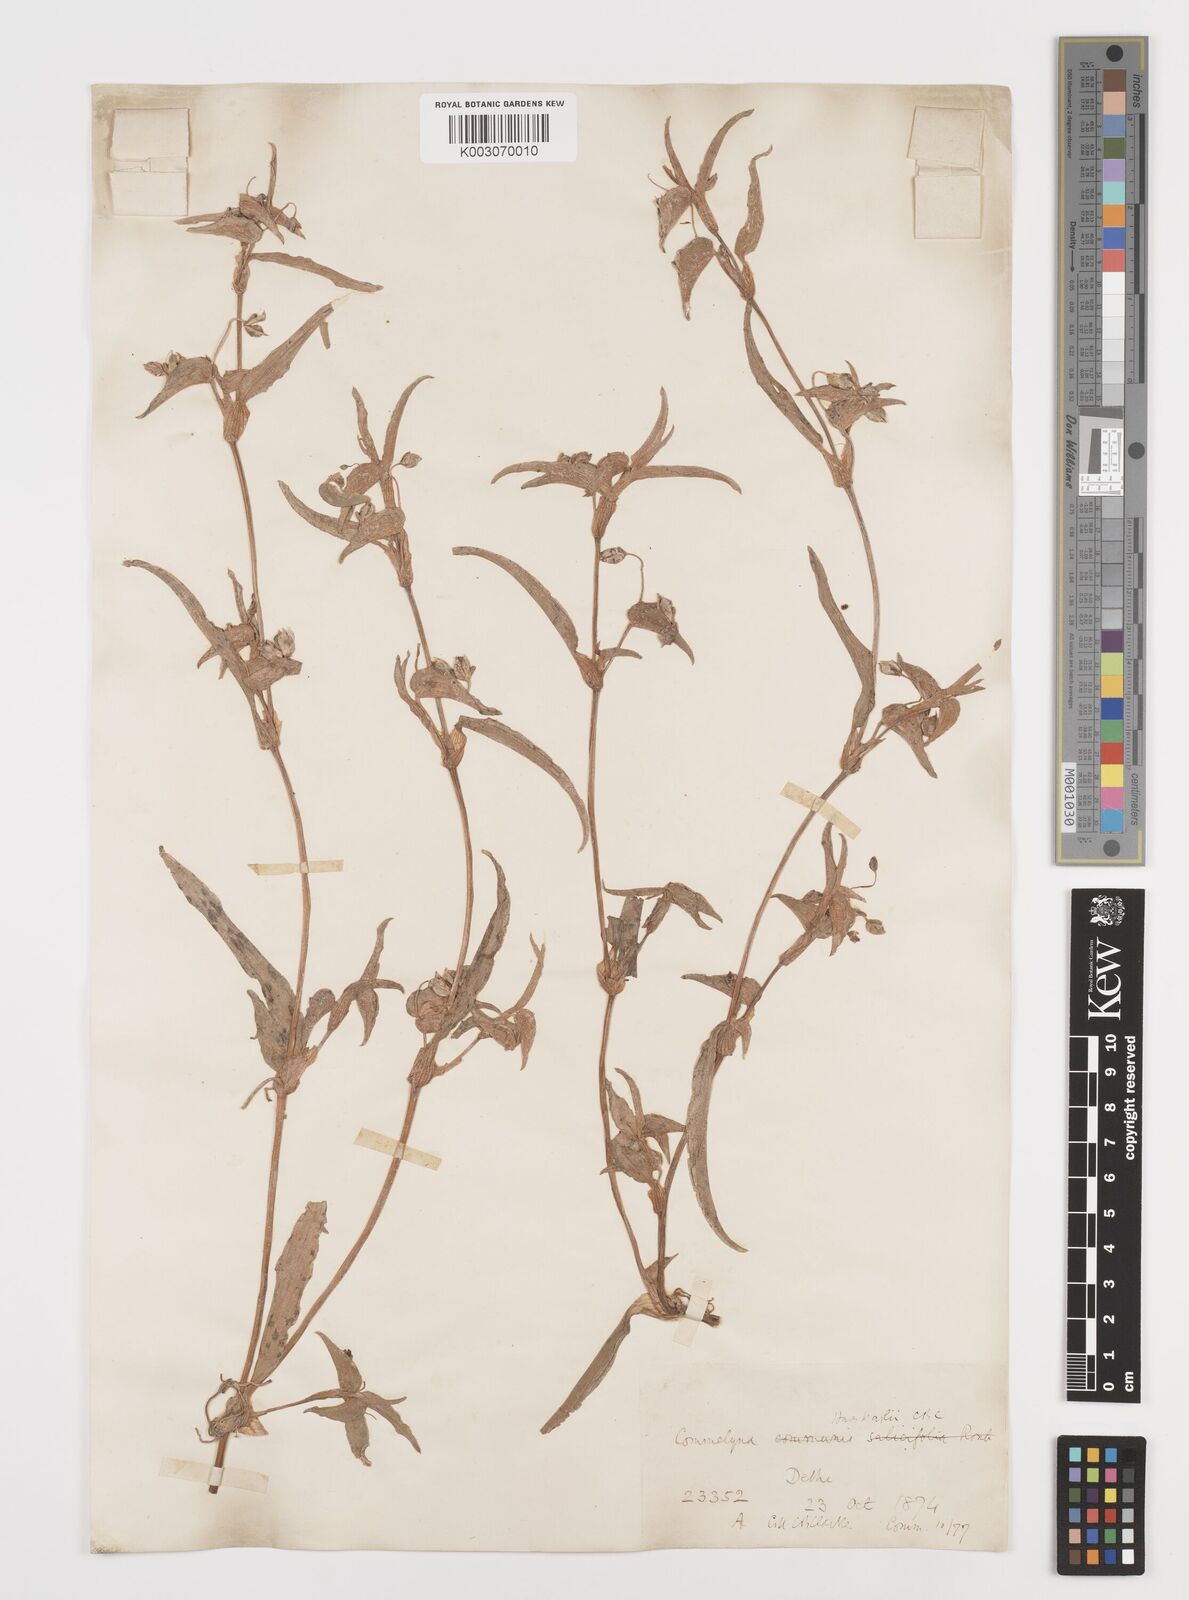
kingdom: Plantae
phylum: Tracheophyta
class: Liliopsida
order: Commelinales
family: Commelinaceae
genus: Commelina
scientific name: Commelina caroliniana
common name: Carolina dayflower
